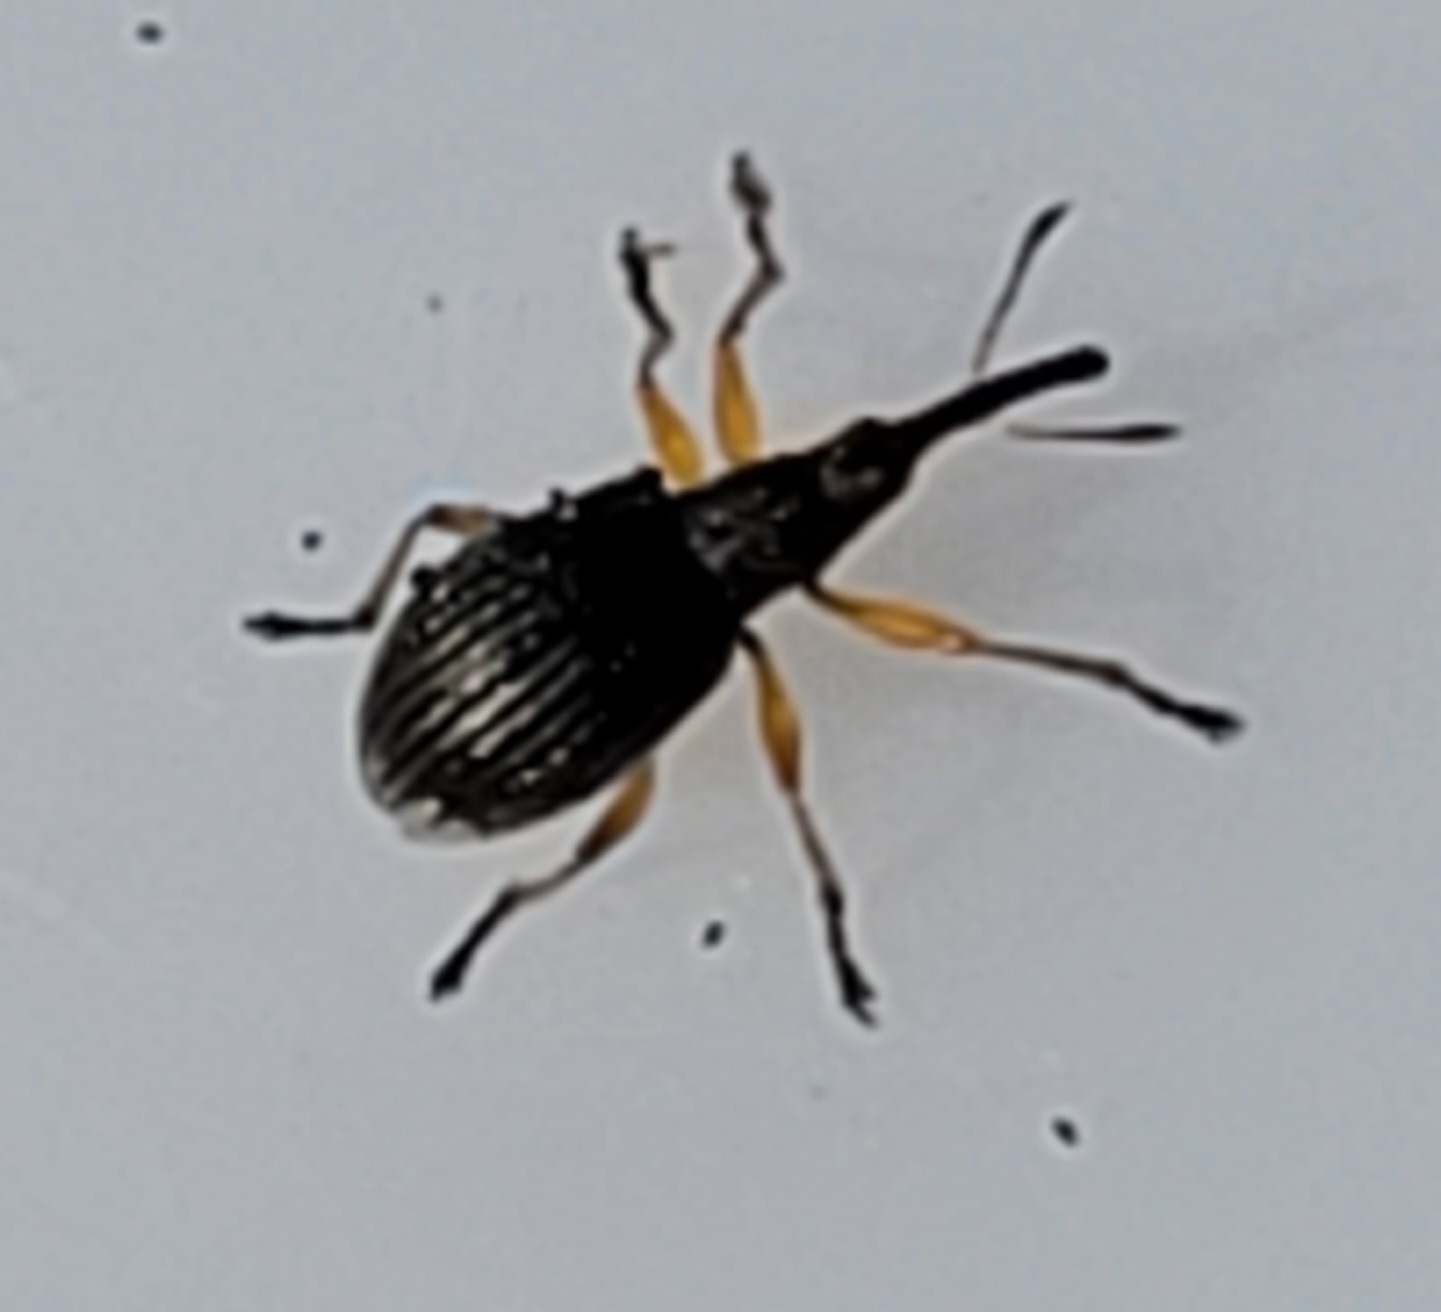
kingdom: Animalia
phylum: Arthropoda
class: Insecta
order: Coleoptera
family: Apionidae
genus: Protapion
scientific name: Protapion fulvipes
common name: Hvidkløversnudebille
